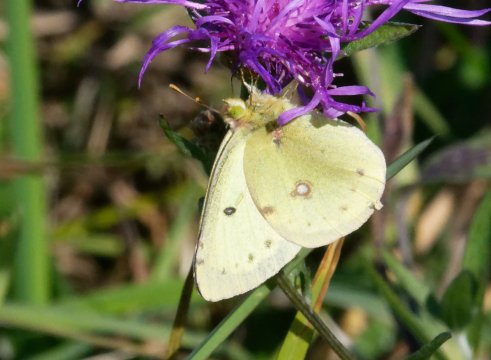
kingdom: Animalia
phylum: Arthropoda
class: Insecta
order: Lepidoptera
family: Pieridae
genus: Colias
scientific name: Colias philodice
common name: Clouded Sulphur
